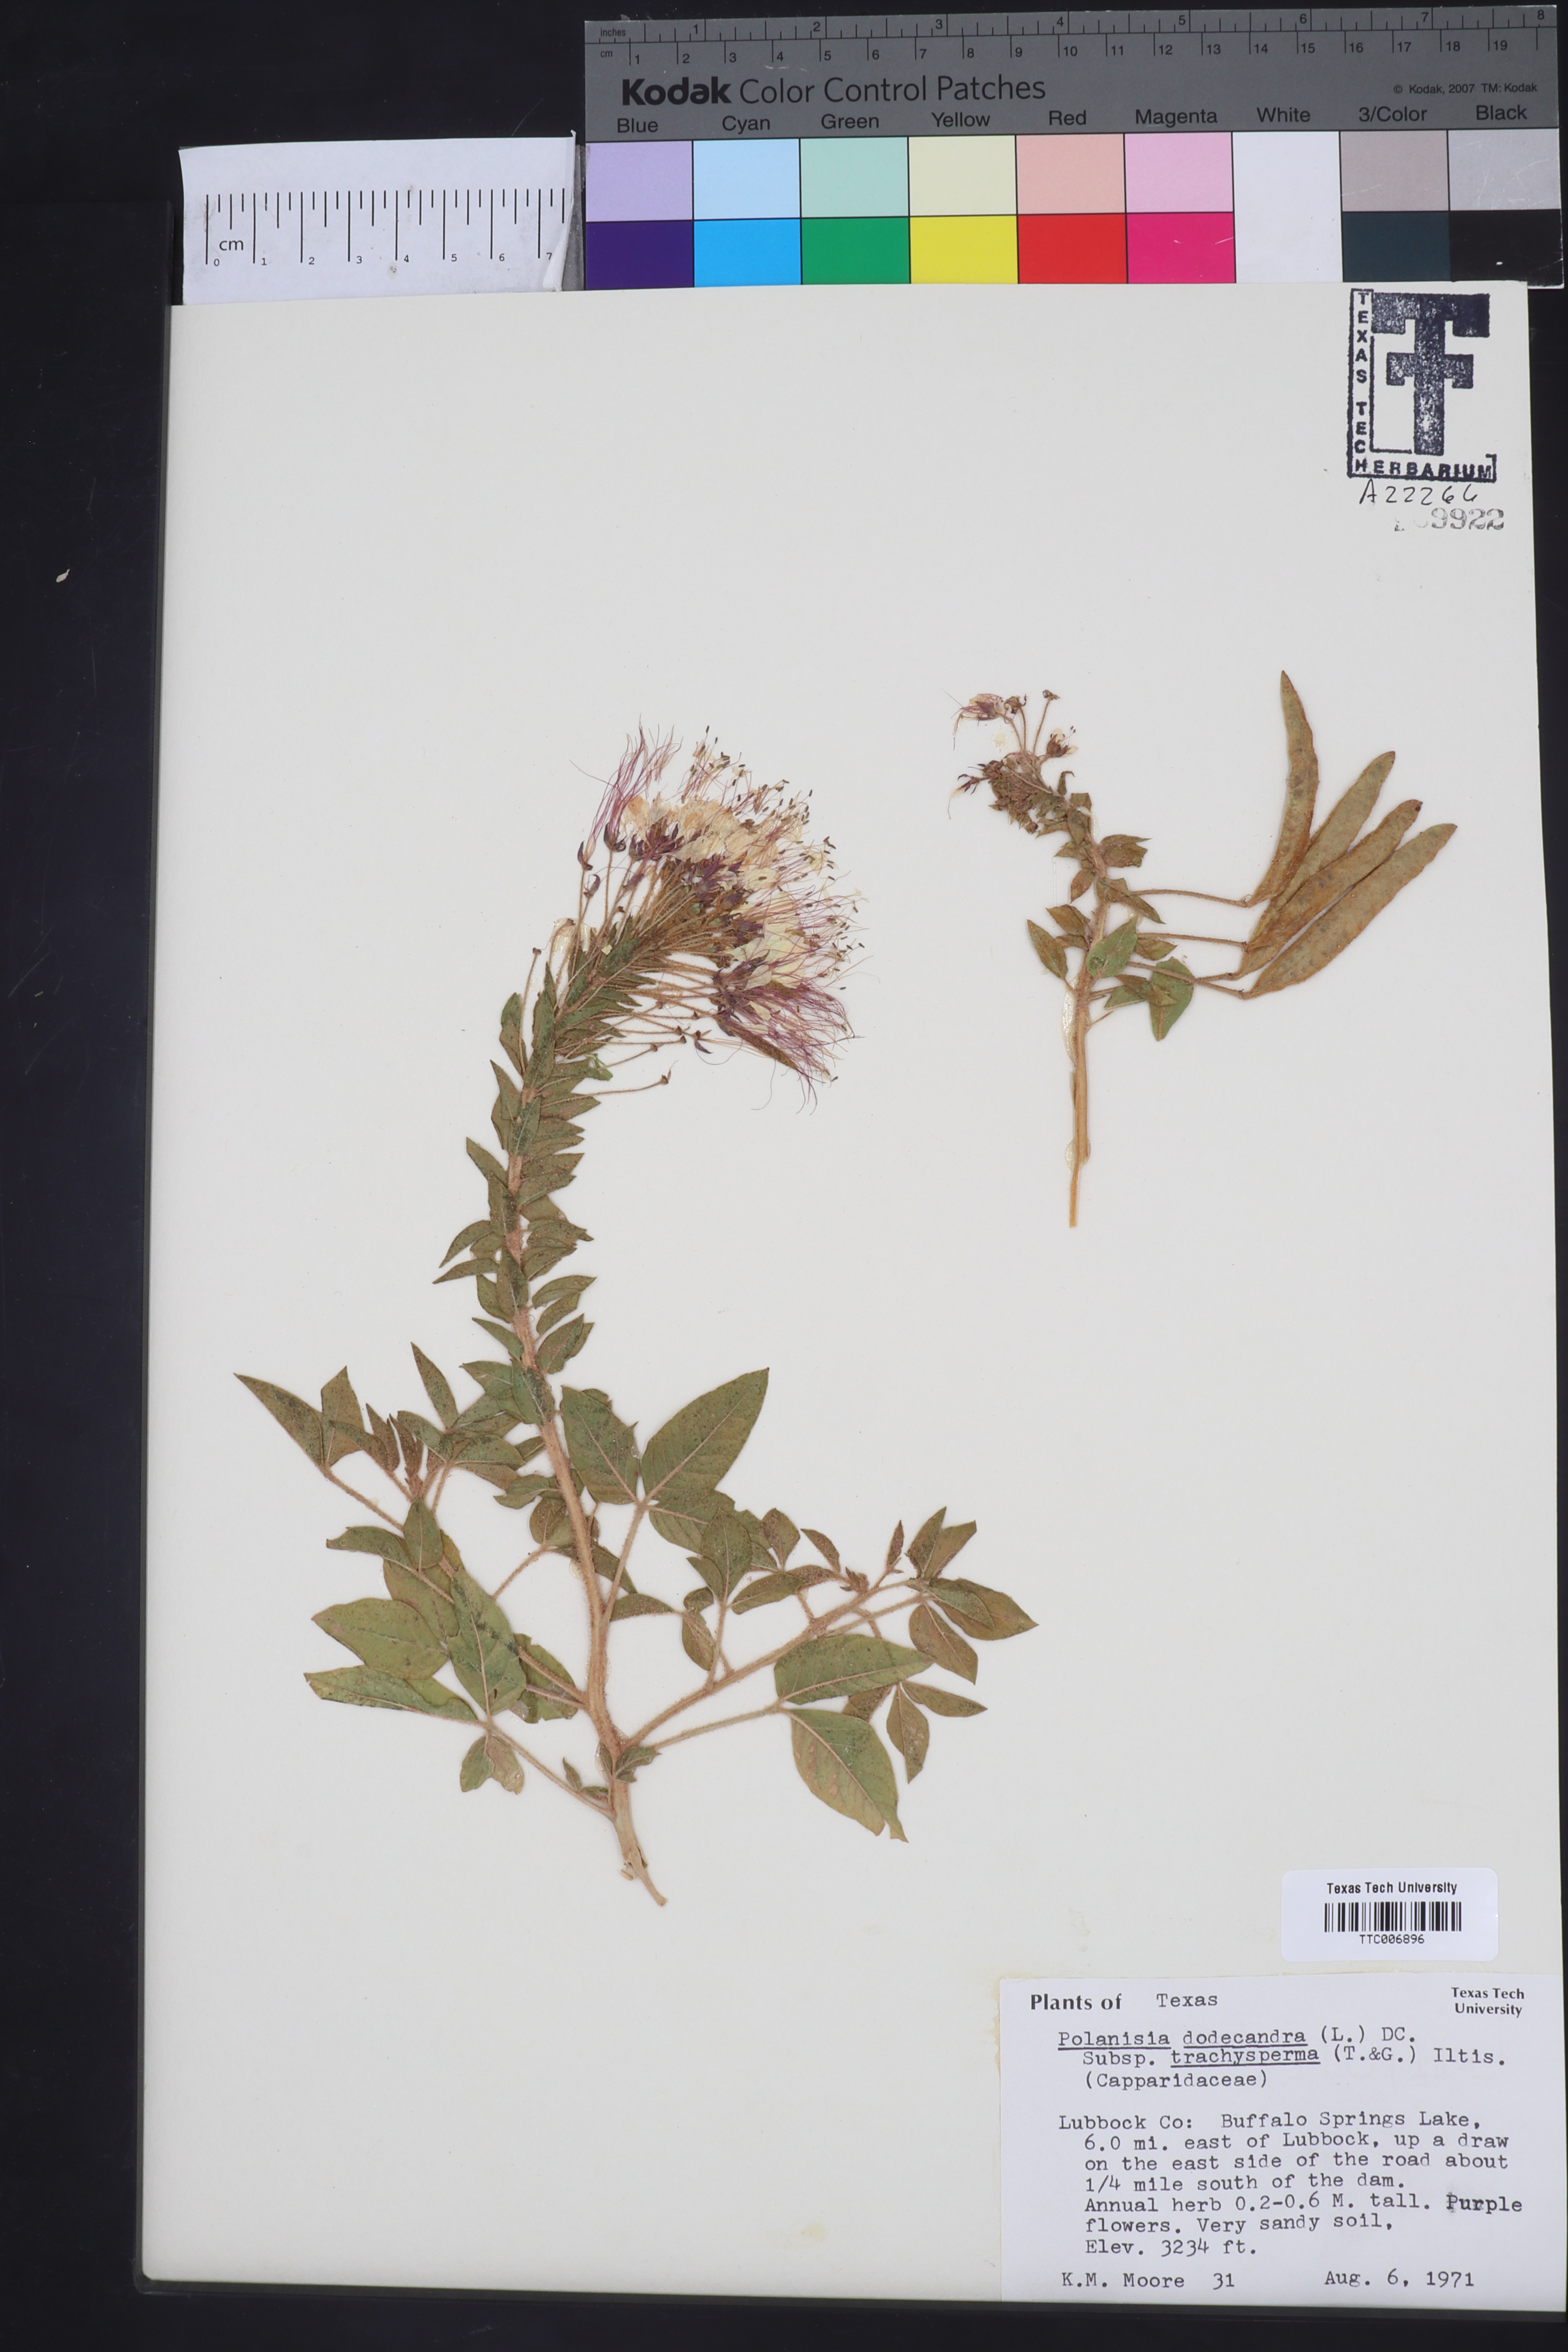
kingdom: Plantae
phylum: Tracheophyta
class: Magnoliopsida
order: Brassicales
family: Cleomaceae
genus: Polanisia
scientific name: Polanisia trachysperma
